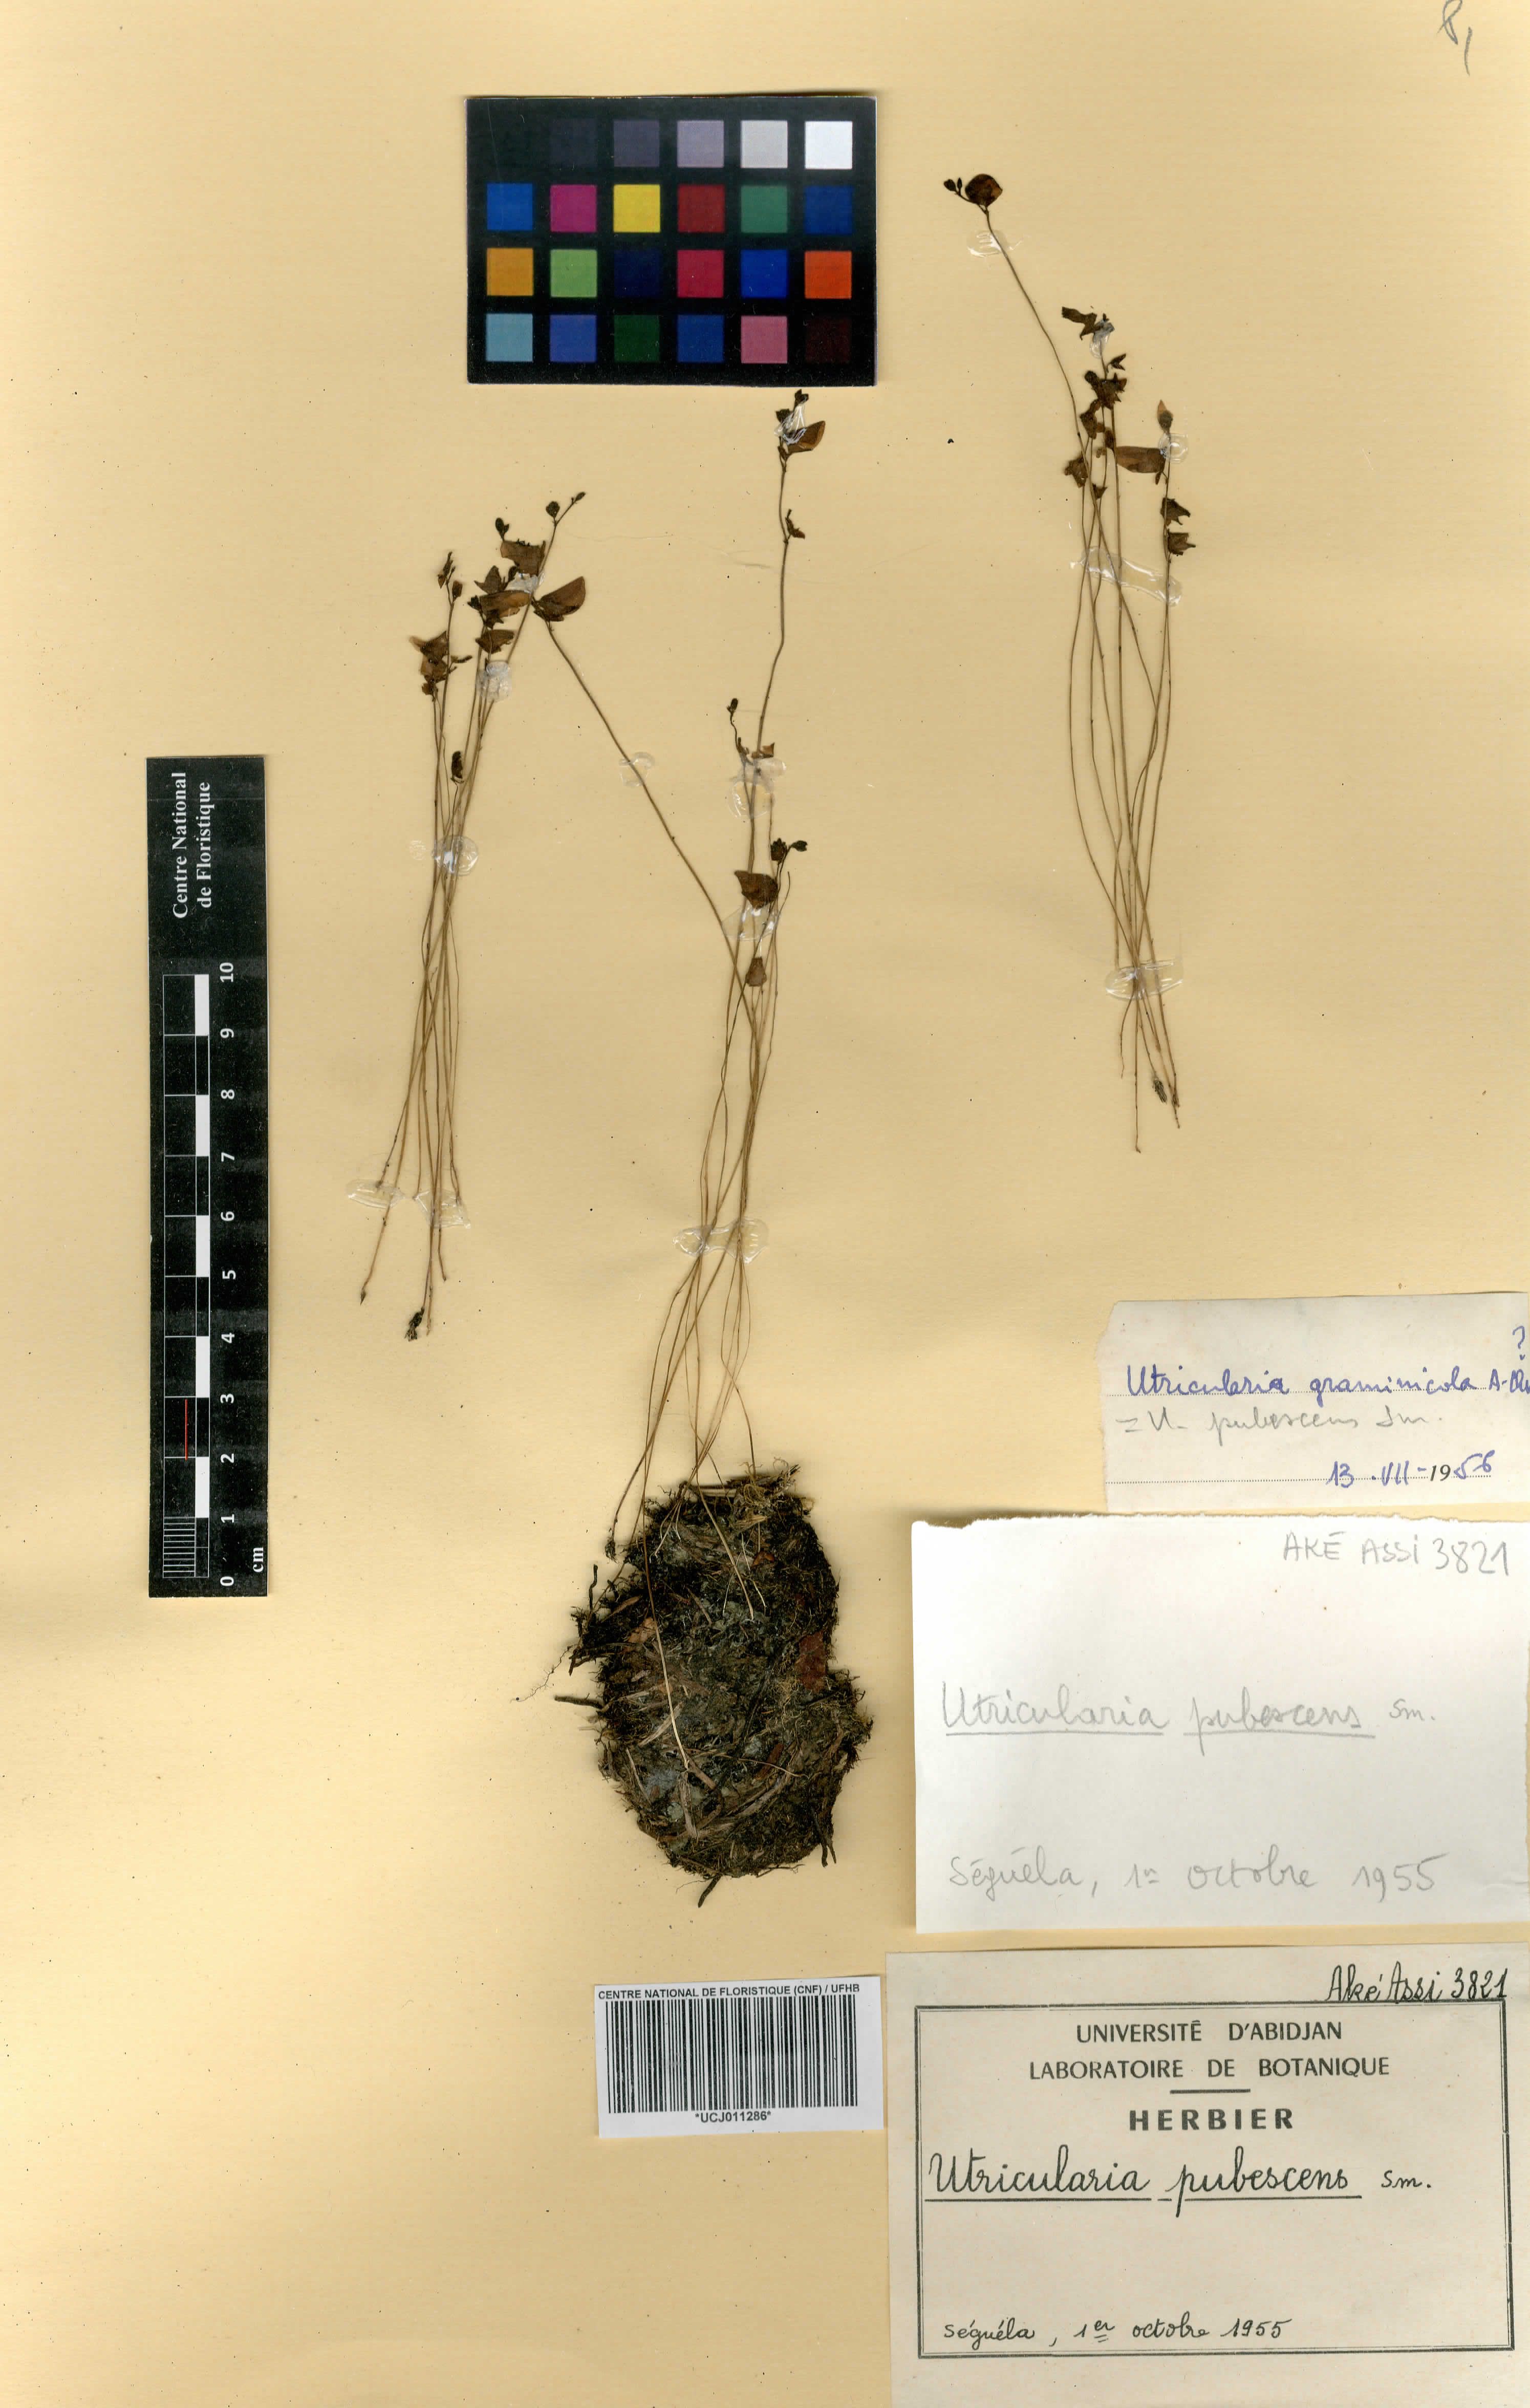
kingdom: Plantae
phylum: Tracheophyta
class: Magnoliopsida
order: Lamiales
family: Lentibulariaceae
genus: Utricularia
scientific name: Utricularia pubescens
